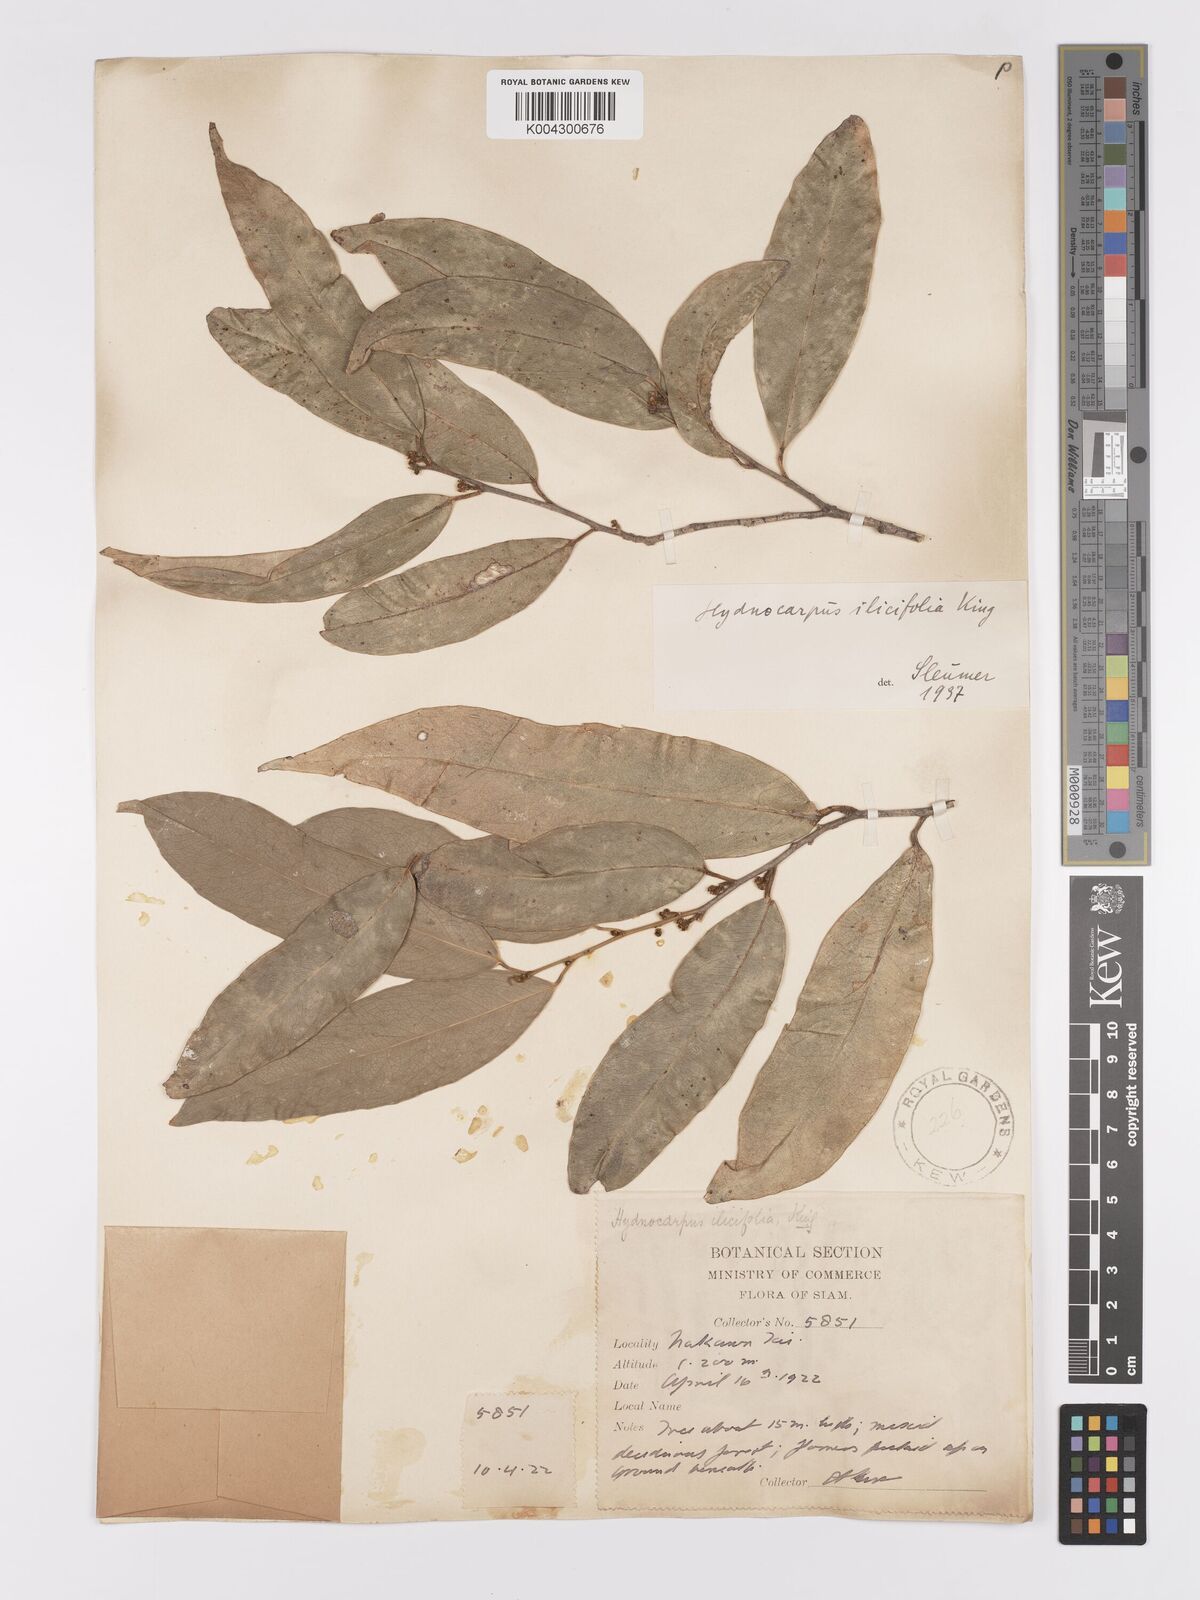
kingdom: Plantae
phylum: Tracheophyta
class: Magnoliopsida
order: Malpighiales
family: Achariaceae
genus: Hydnocarpus
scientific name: Hydnocarpus ilicifolius
